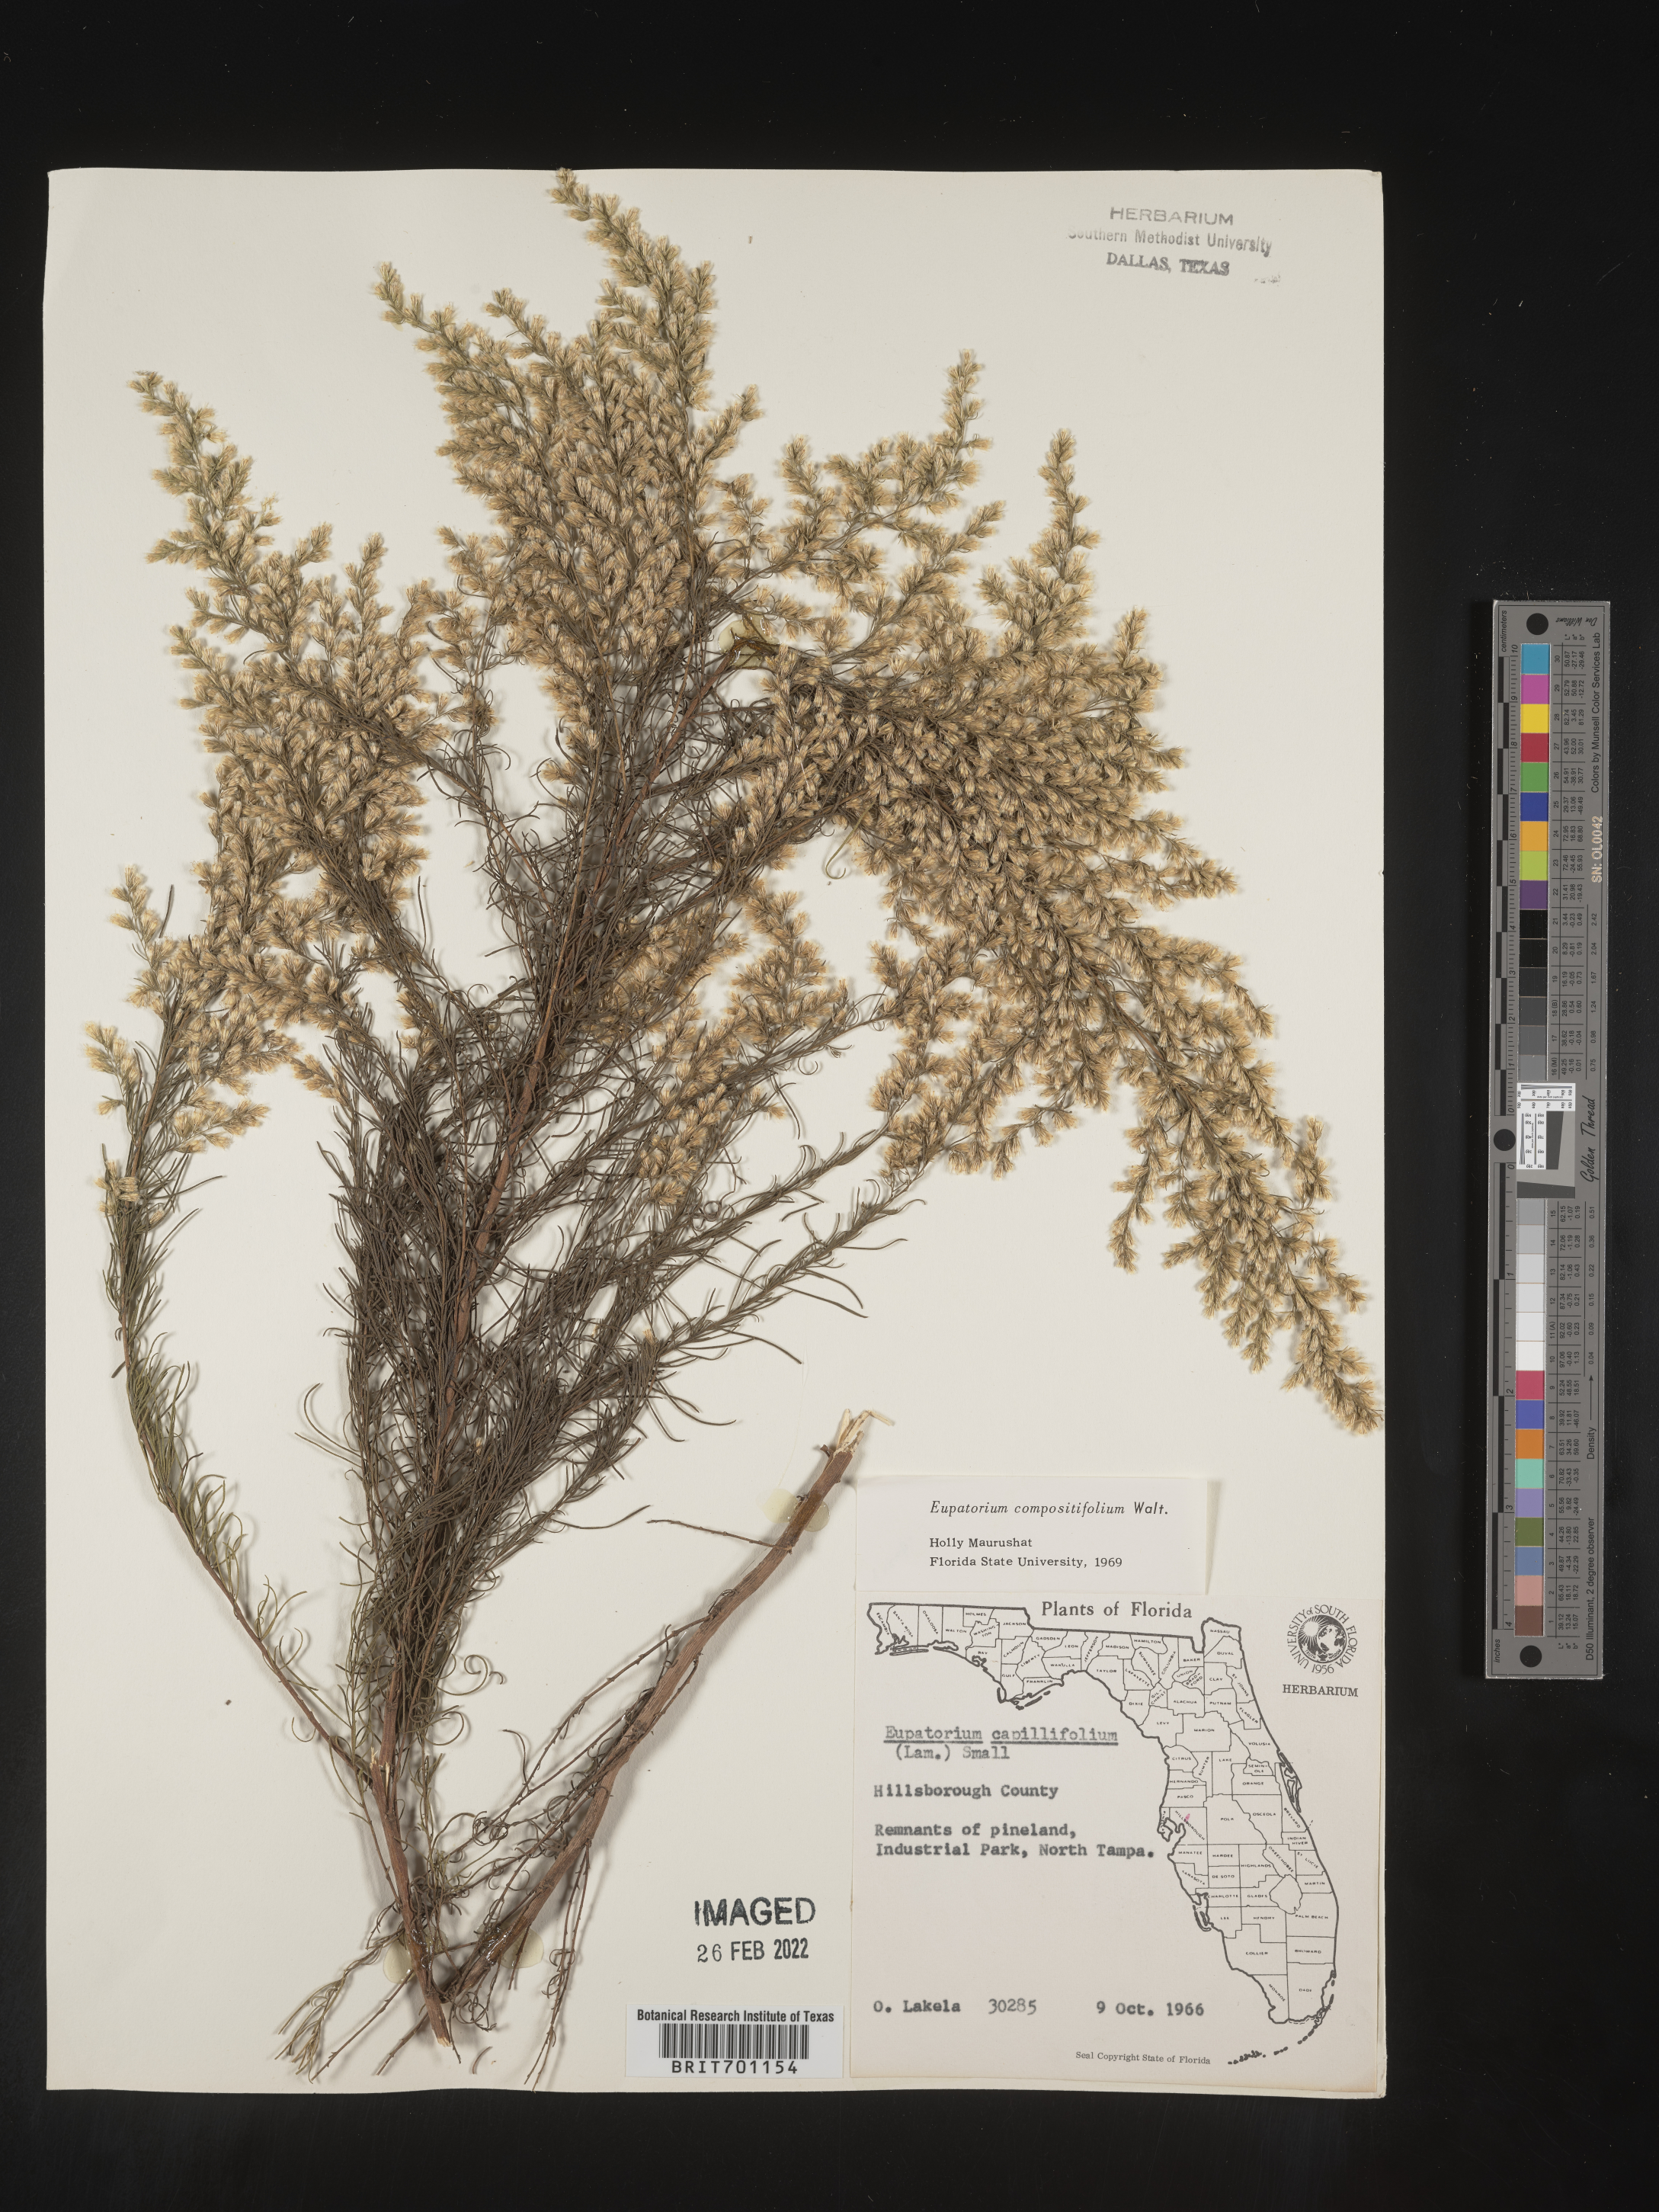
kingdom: Plantae
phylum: Tracheophyta
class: Magnoliopsida
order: Asterales
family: Asteraceae
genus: Eupatorium
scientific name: Eupatorium compositifolium
